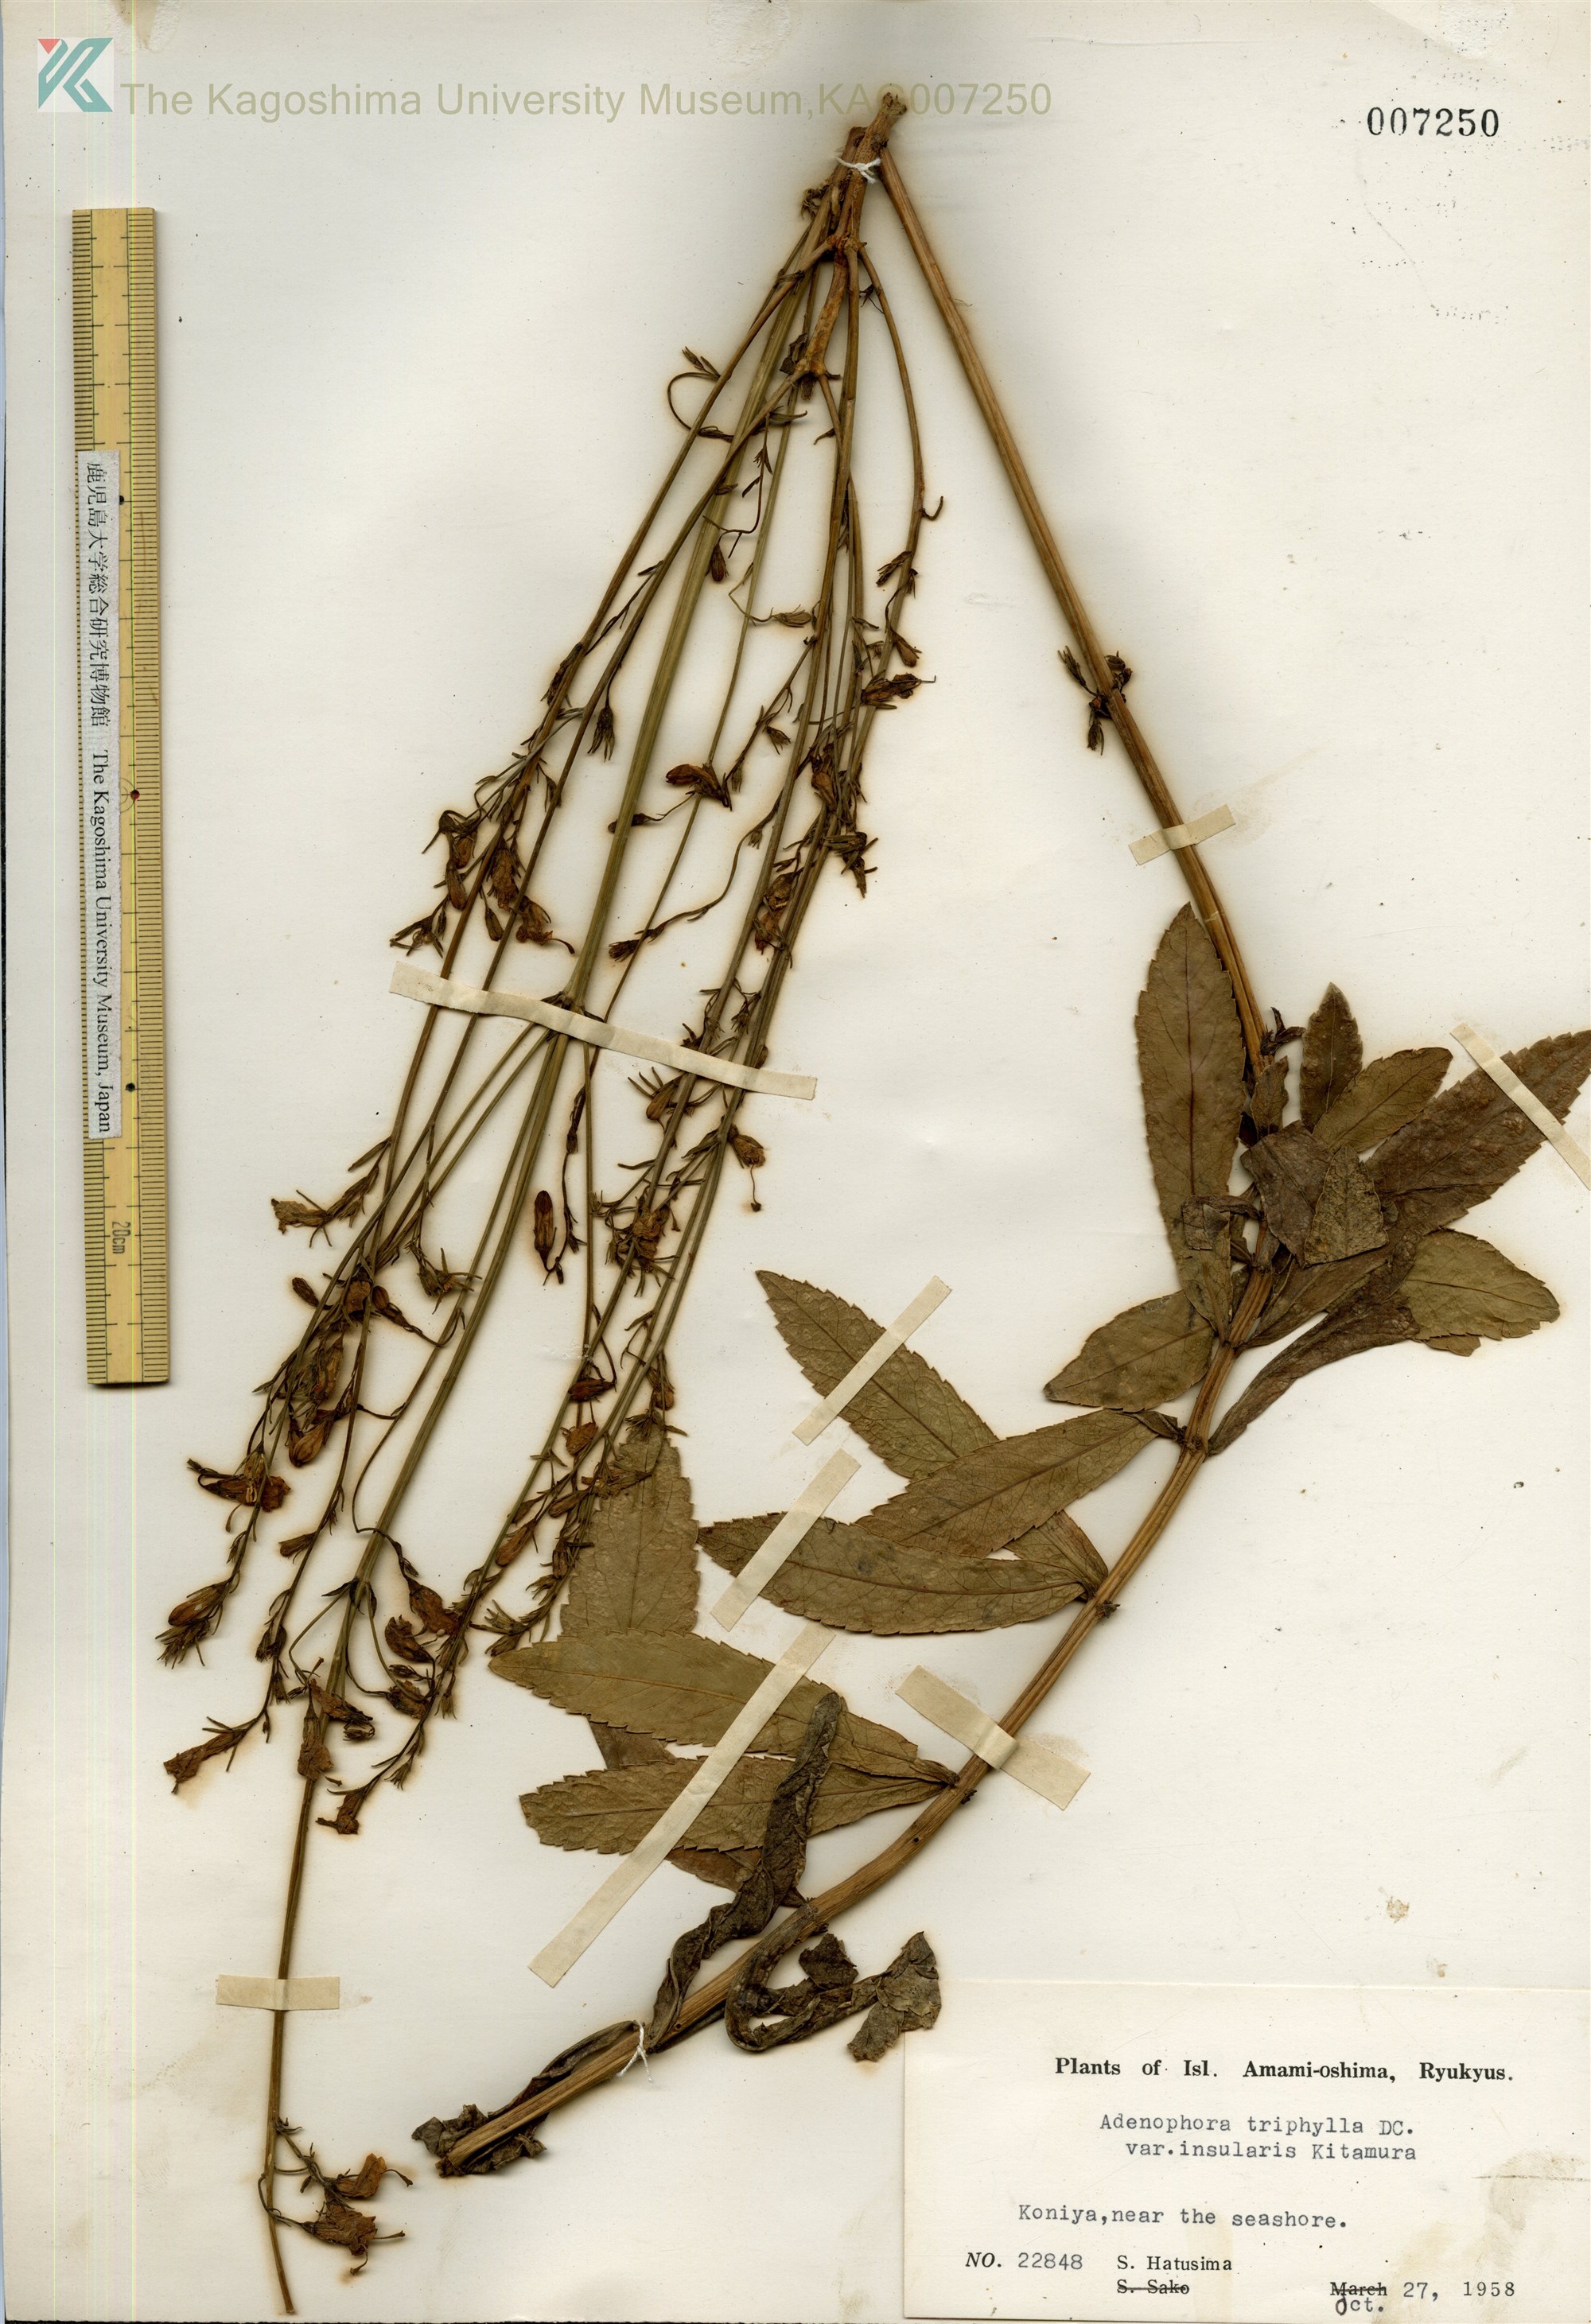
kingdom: Plantae
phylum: Tracheophyta
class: Magnoliopsida
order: Asterales
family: Campanulaceae
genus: Adenophora
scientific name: Adenophora tashiroi
